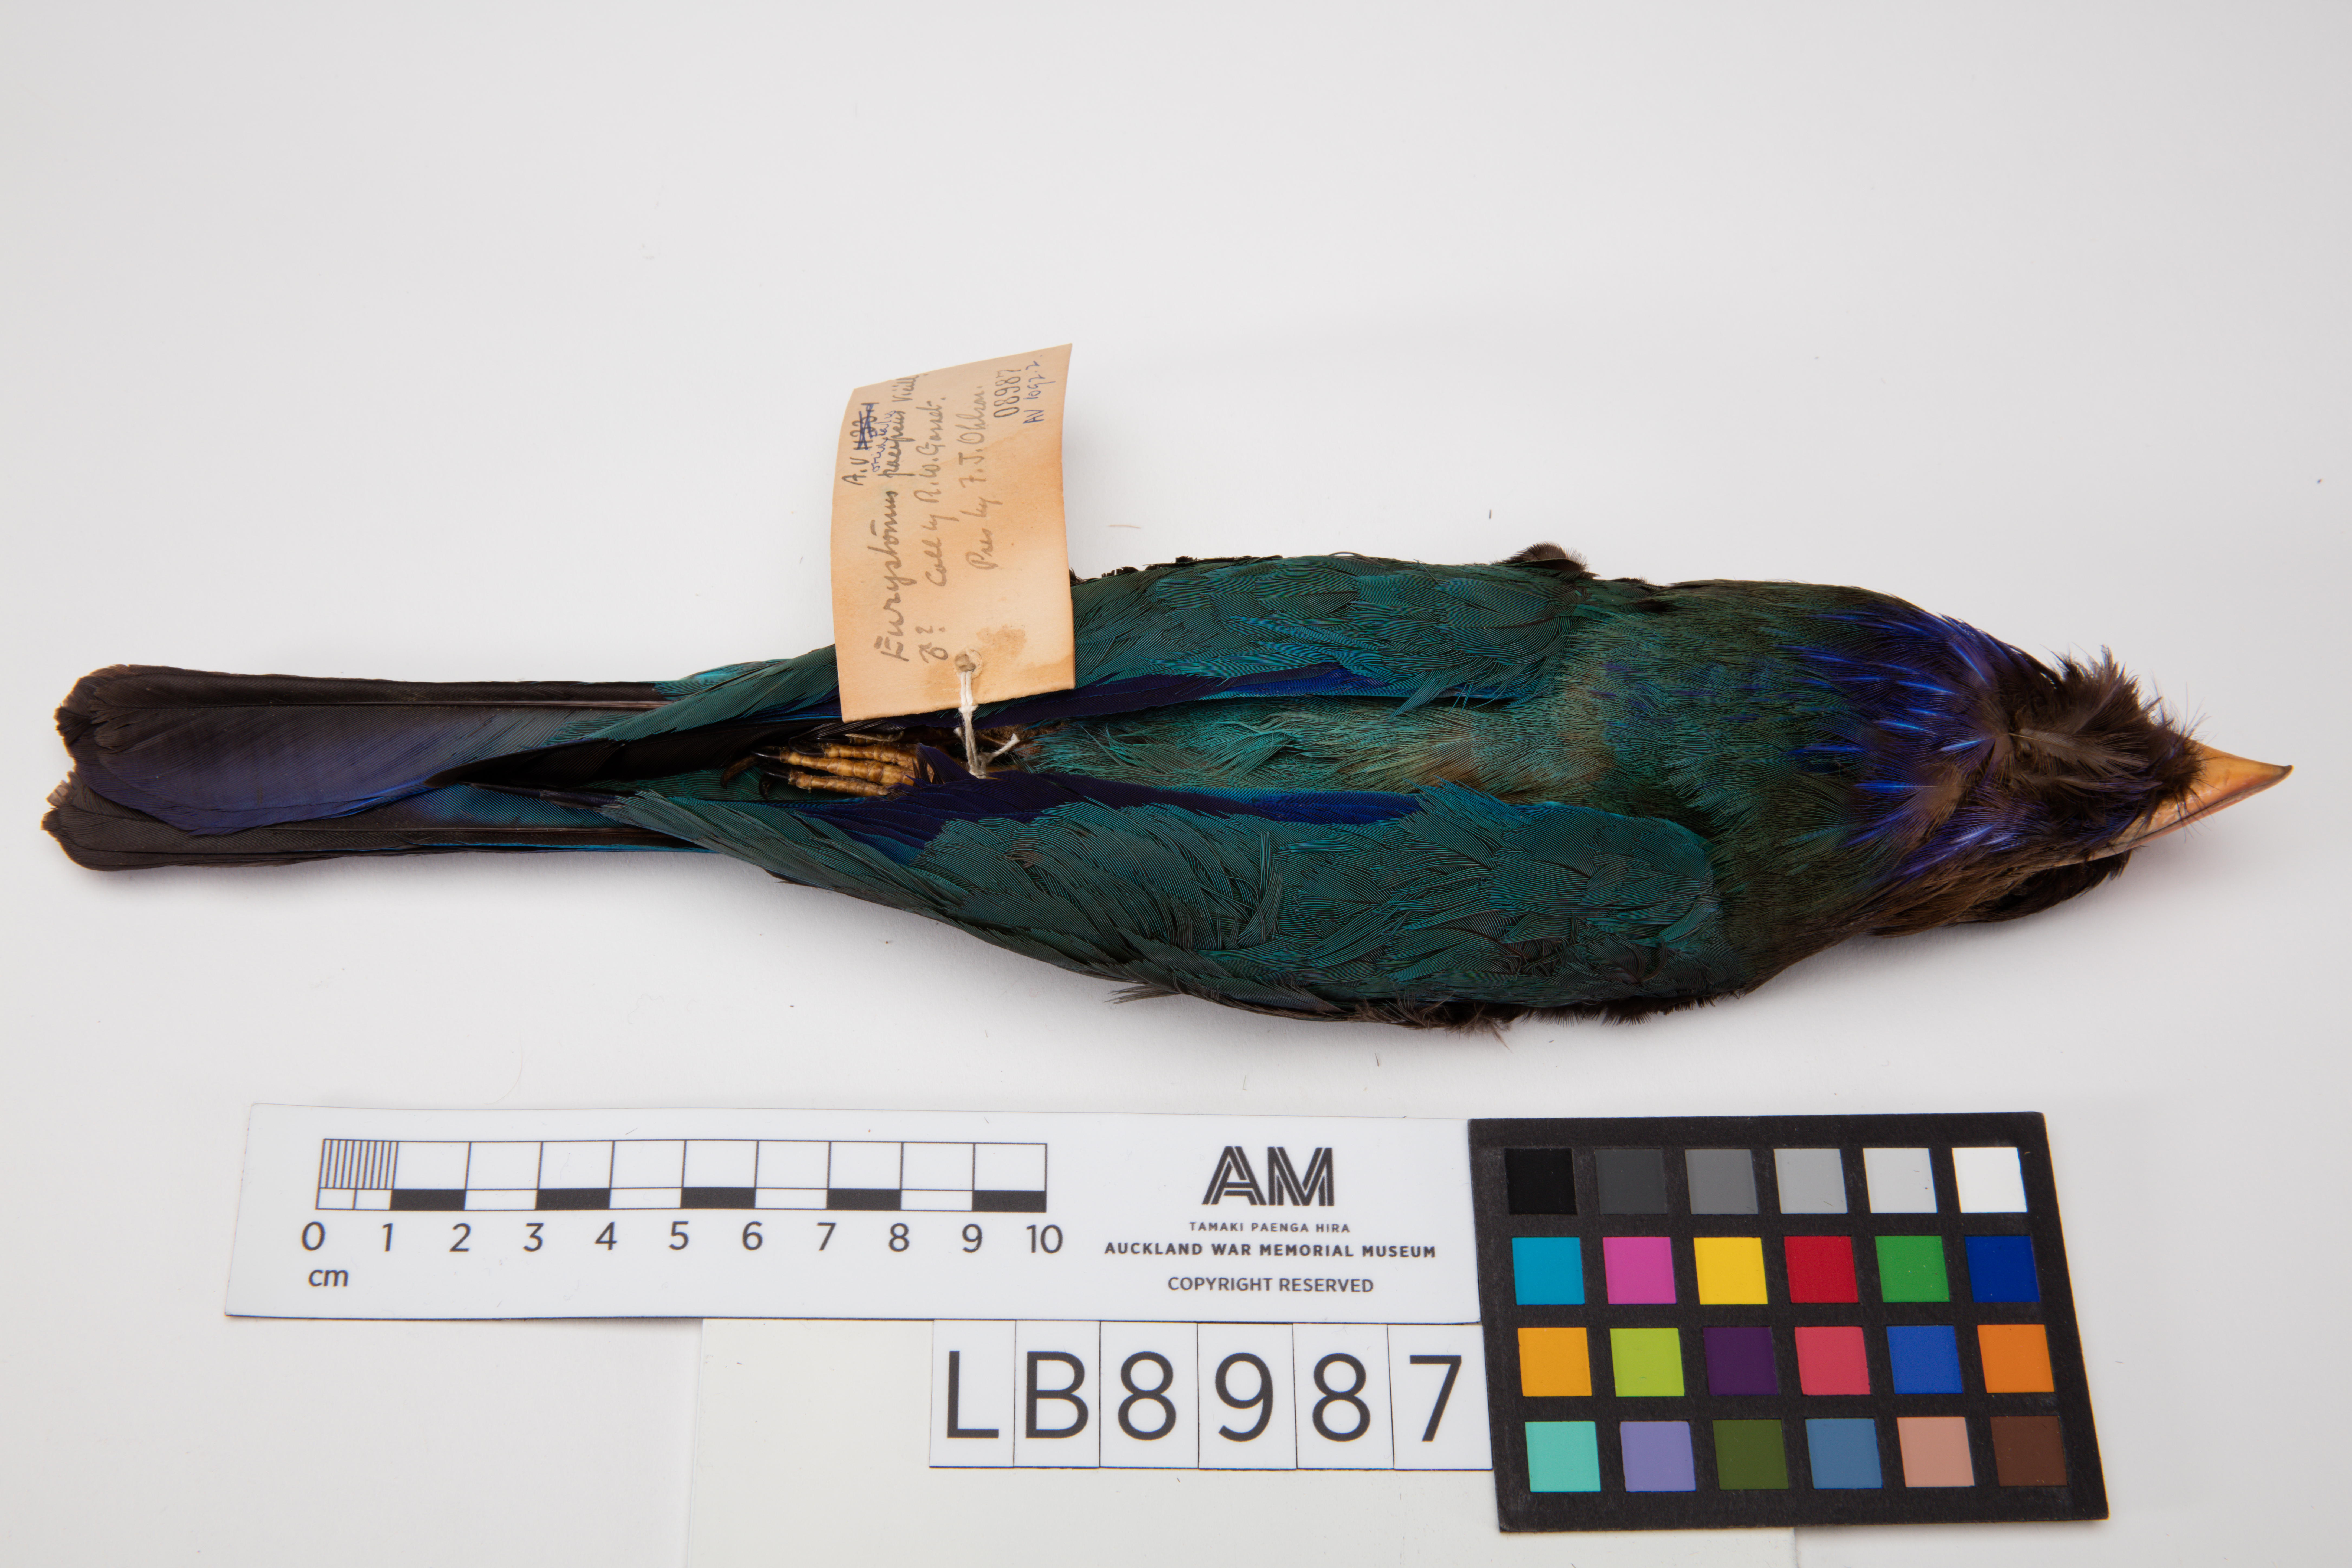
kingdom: Animalia
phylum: Chordata
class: Aves
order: Coraciiformes
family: Coraciidae
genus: Eurystomus
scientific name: Eurystomus orientalis
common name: Oriental dollarbird
